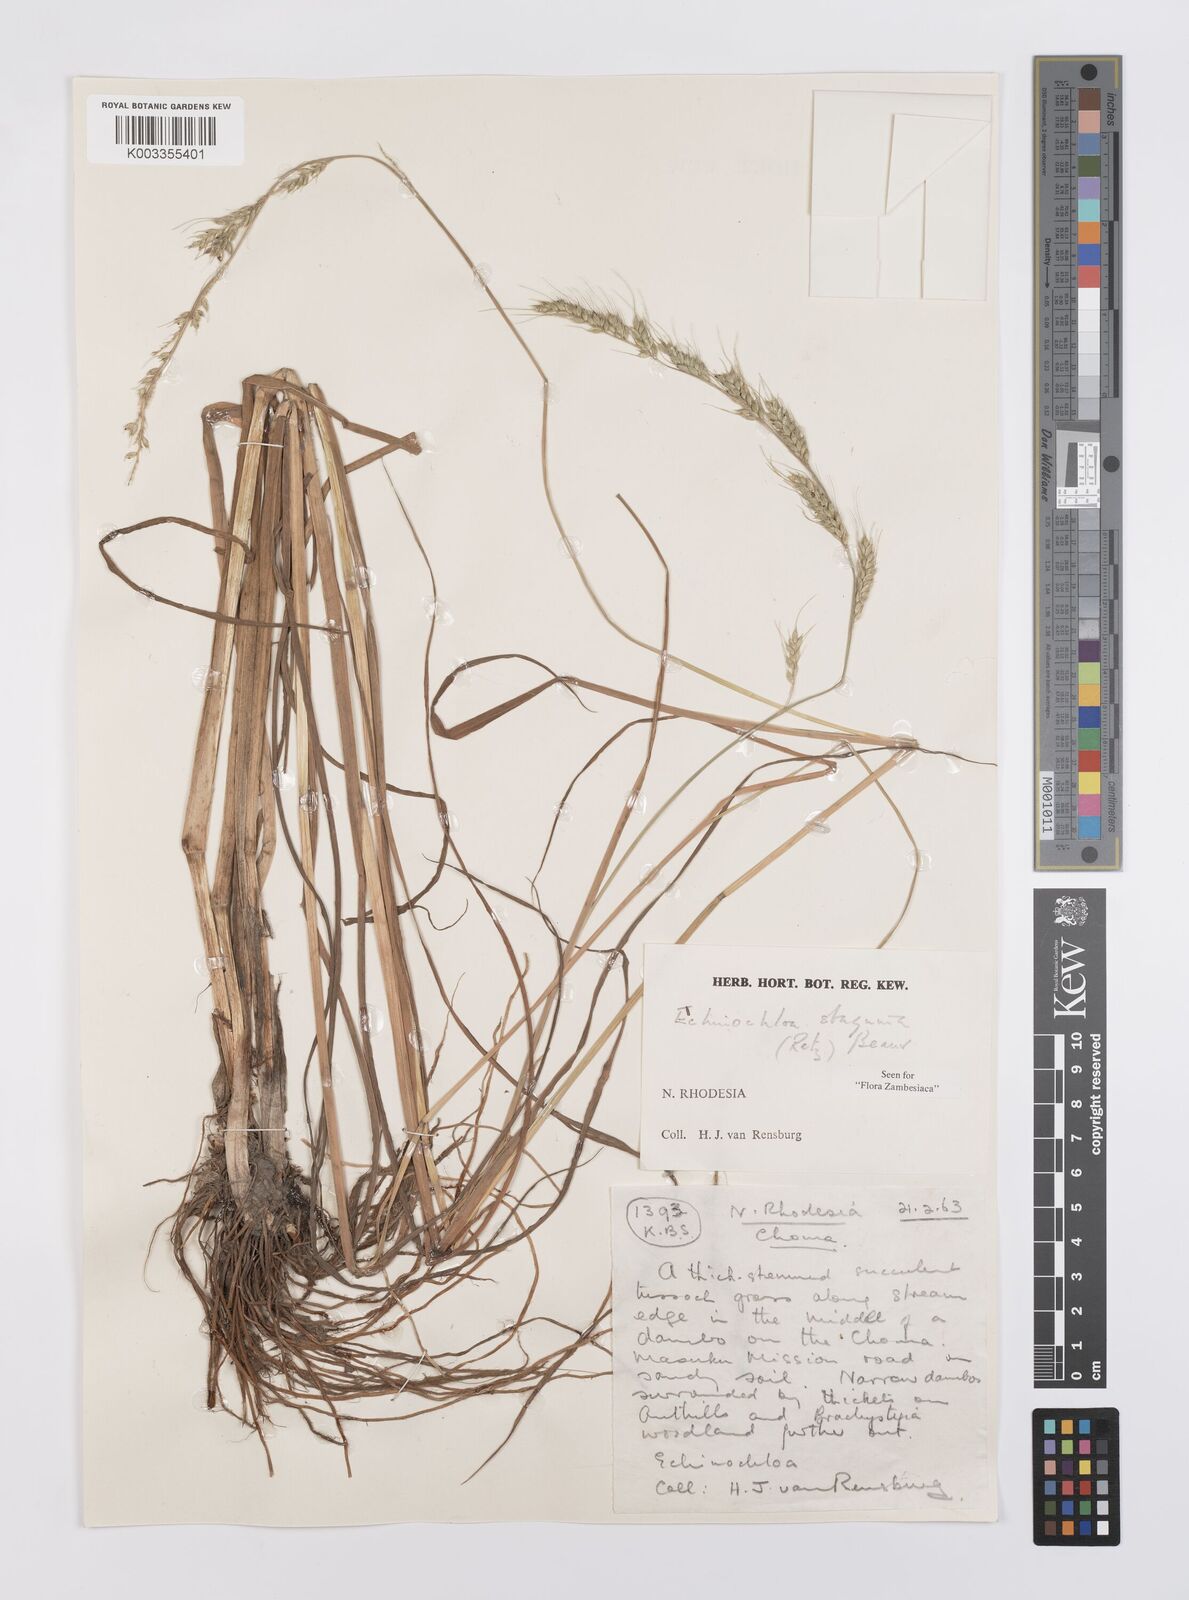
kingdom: Plantae
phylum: Tracheophyta
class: Liliopsida
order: Poales
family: Poaceae
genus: Echinochloa
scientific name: Echinochloa stagnina
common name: Burgu grass
